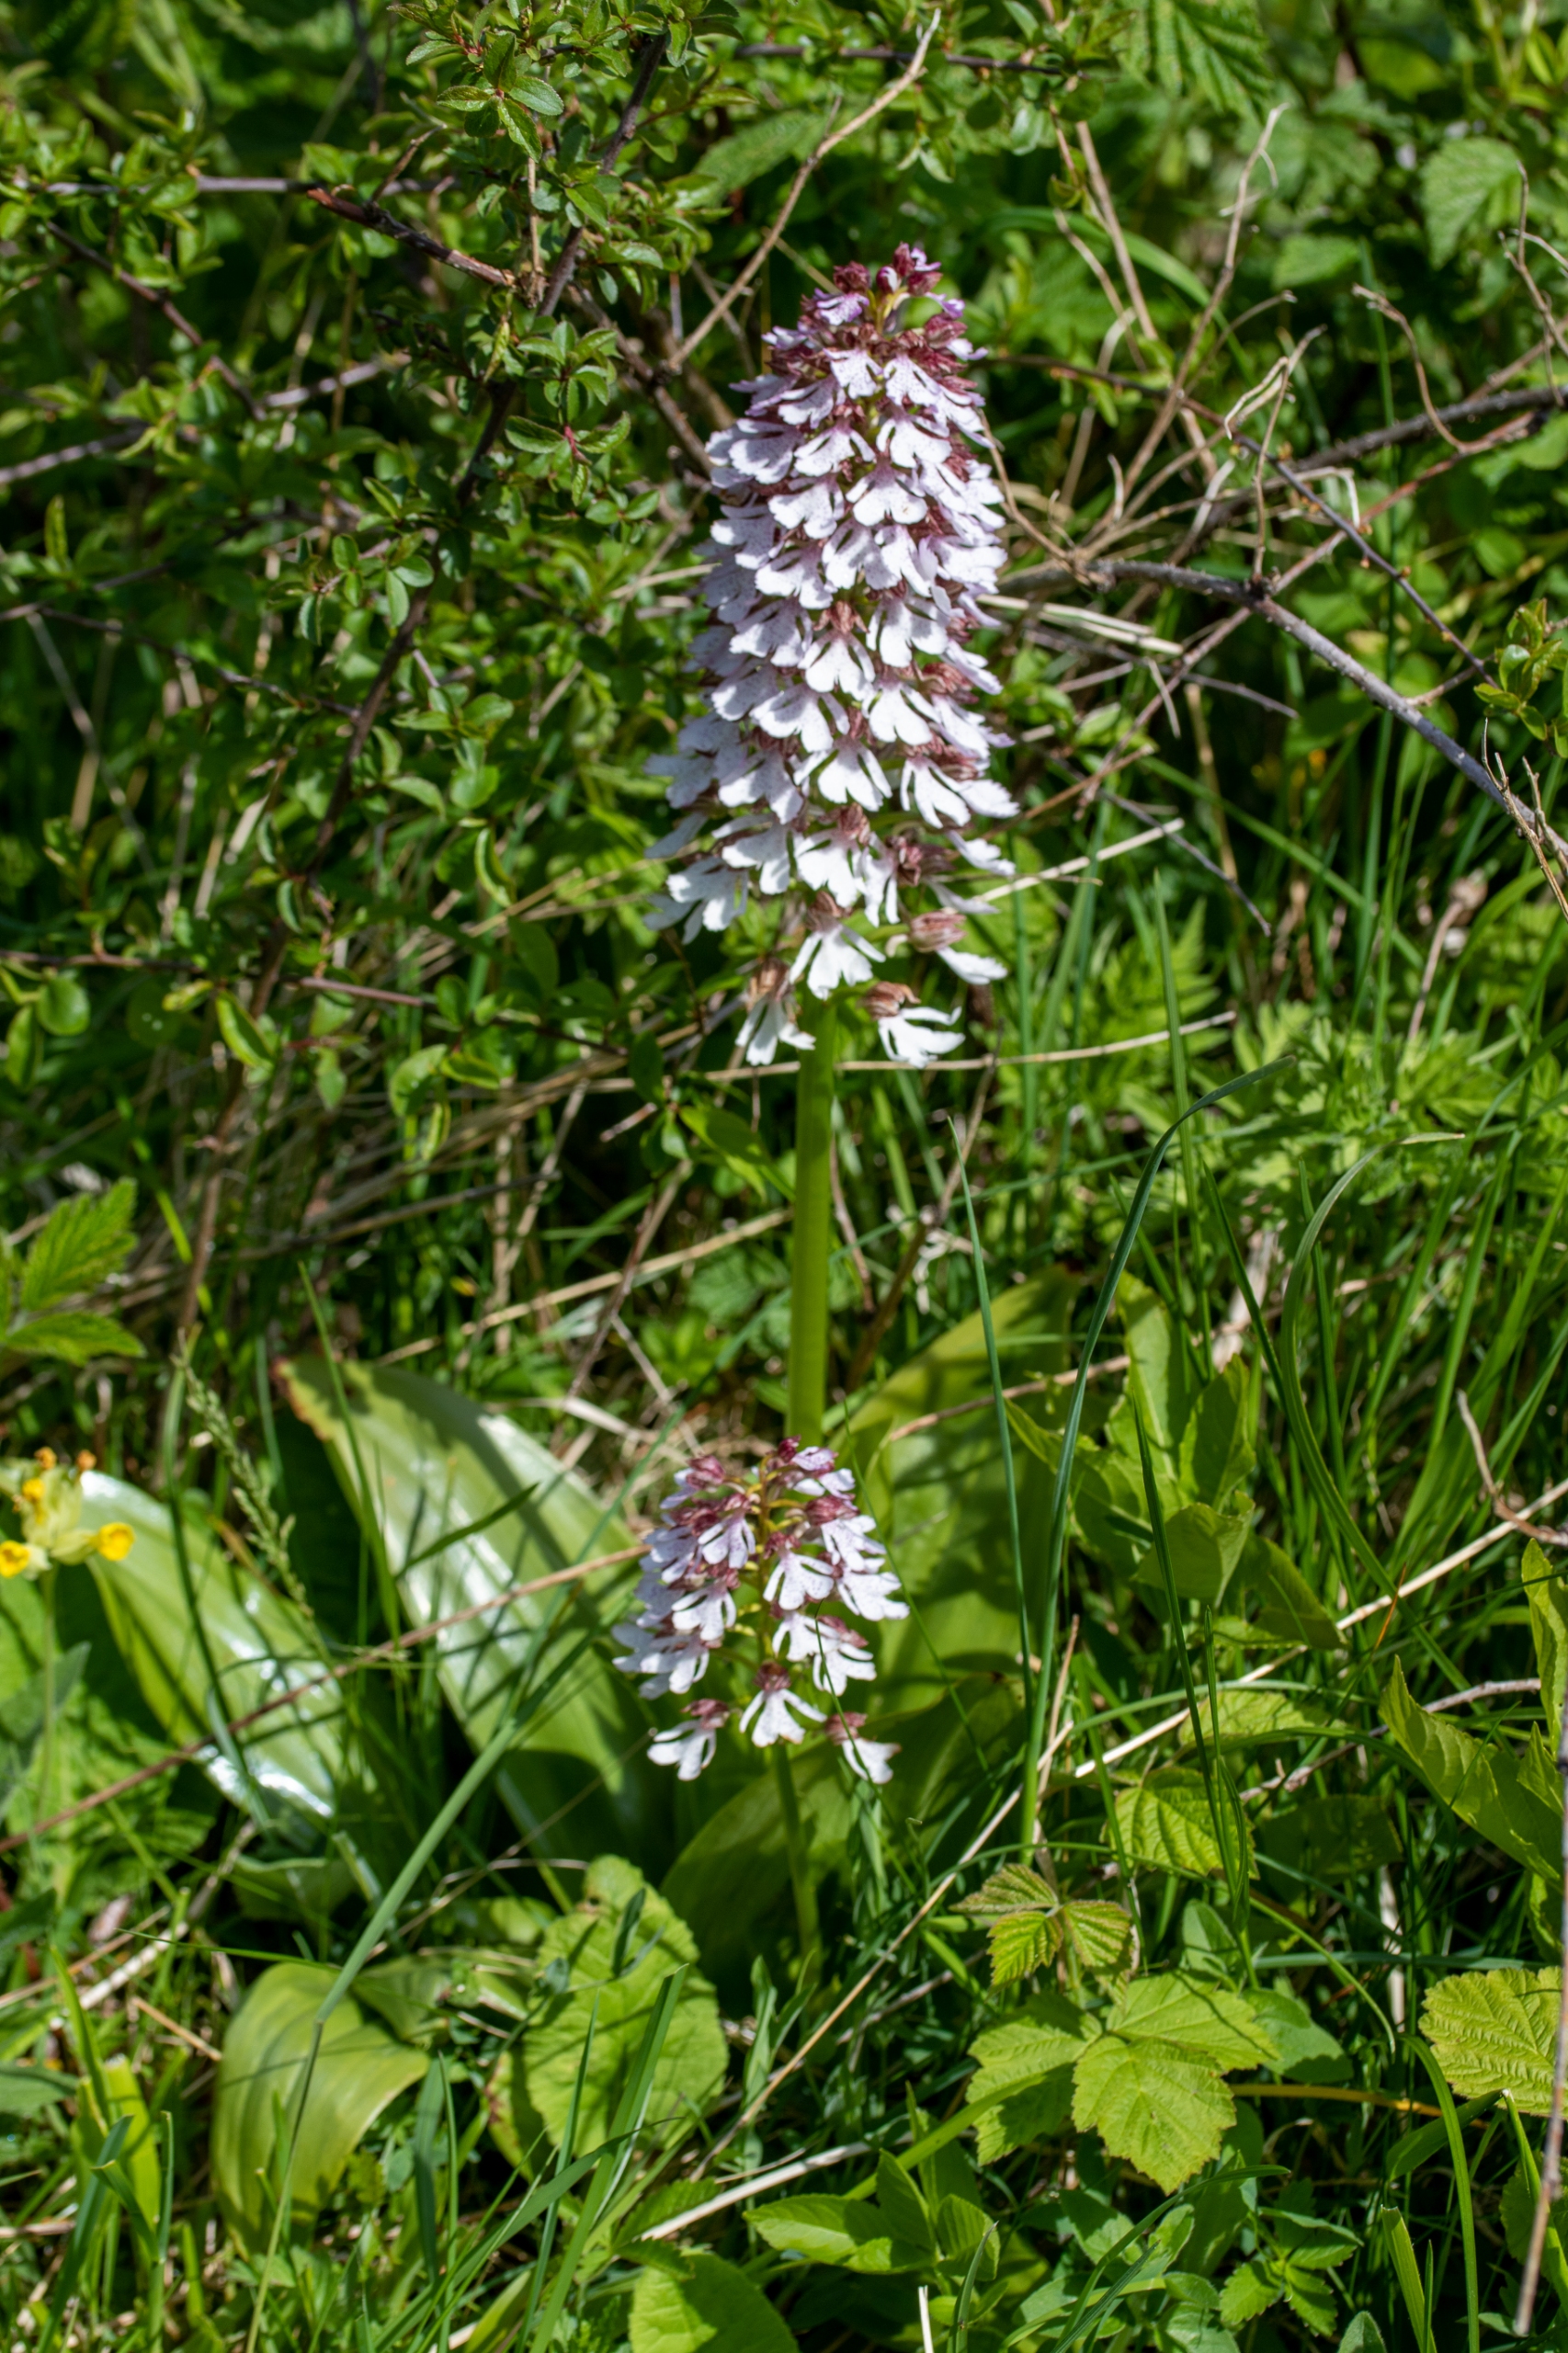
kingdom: Plantae
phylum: Tracheophyta
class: Liliopsida
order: Asparagales
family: Orchidaceae
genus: Orchis
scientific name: Orchis purpurea
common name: Stor gøgeurt
